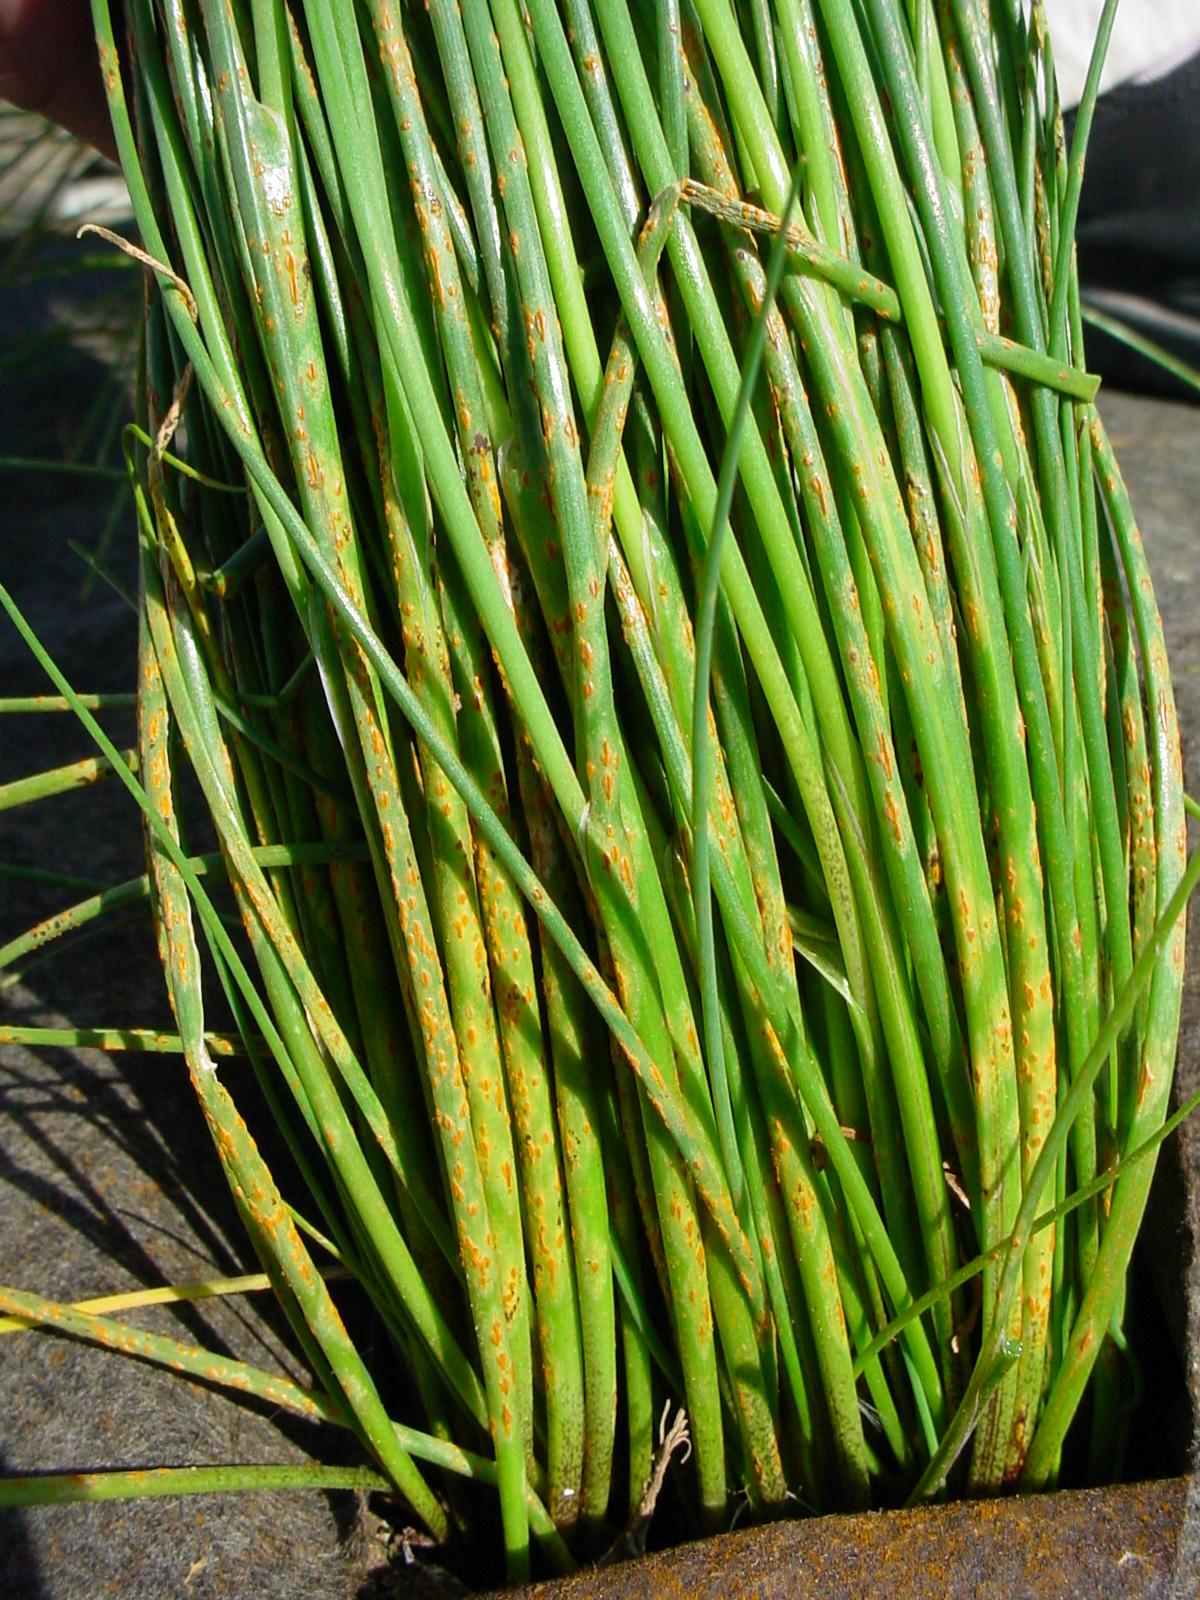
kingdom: Plantae
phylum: Tracheophyta
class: Liliopsida
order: Asparagales
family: Amaryllidaceae
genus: Allium
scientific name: Allium schoenoprasum
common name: Chives
